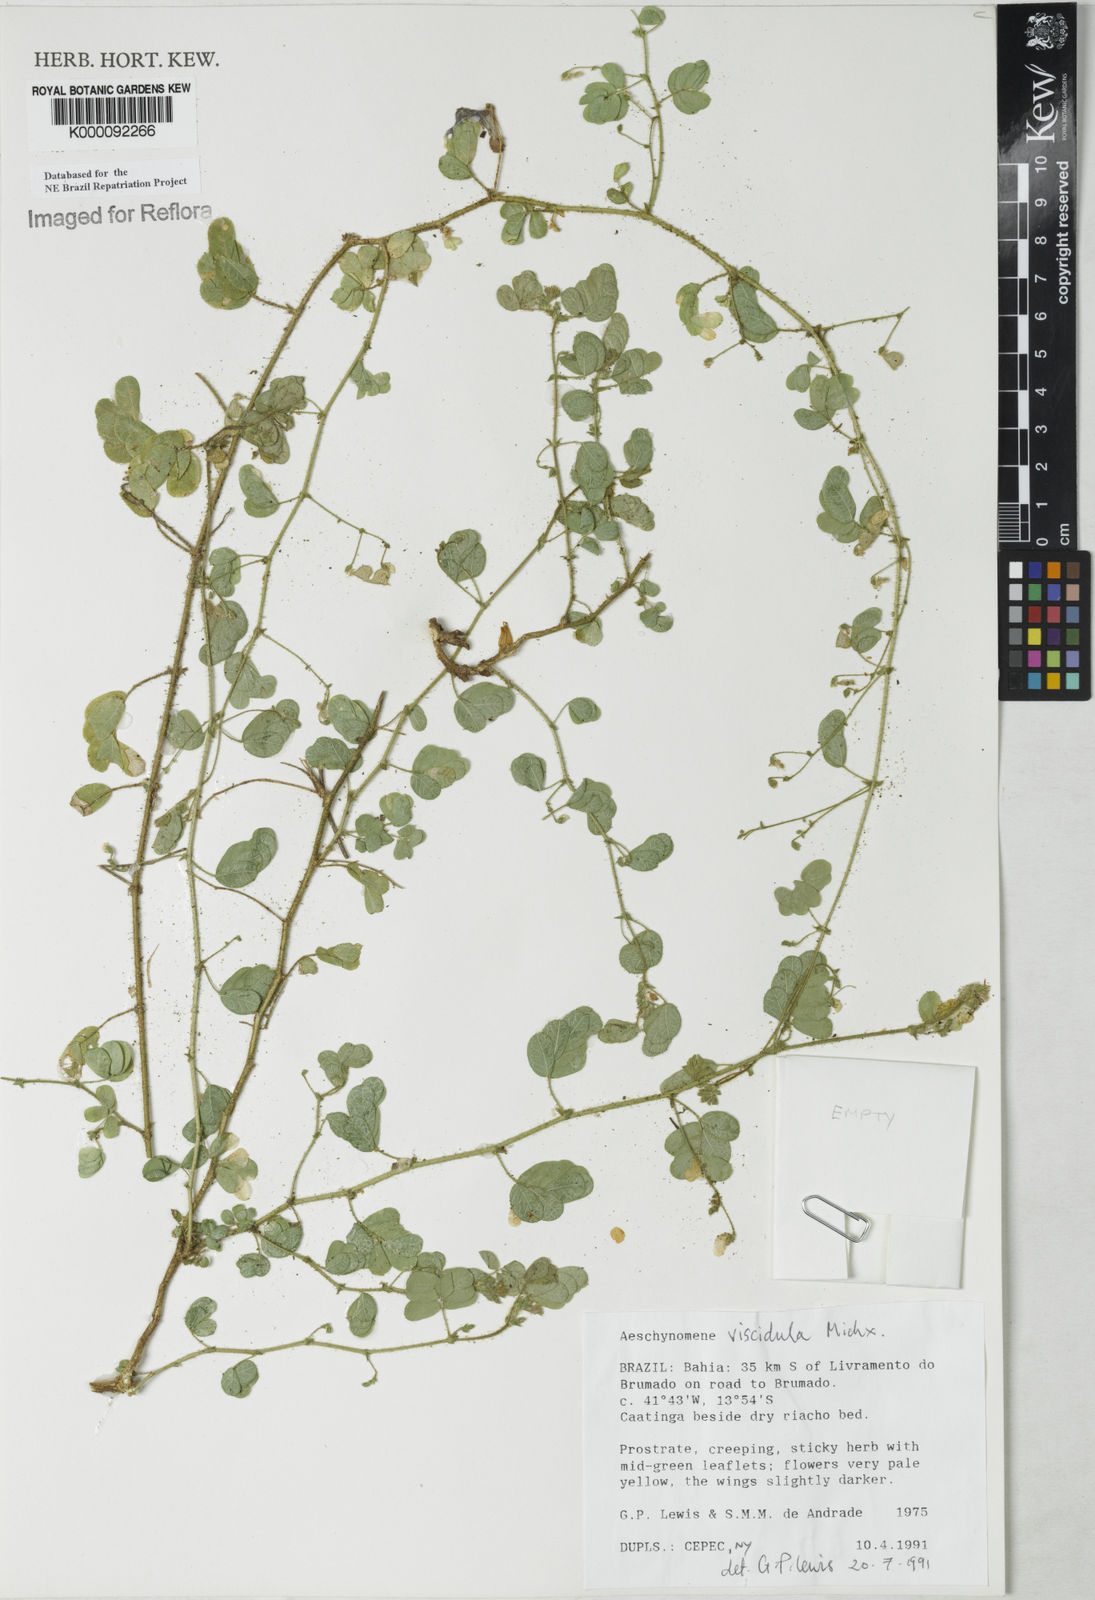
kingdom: Plantae
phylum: Tracheophyta
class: Magnoliopsida
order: Fabales
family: Fabaceae
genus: Ctenodon
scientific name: Ctenodon viscidulus
